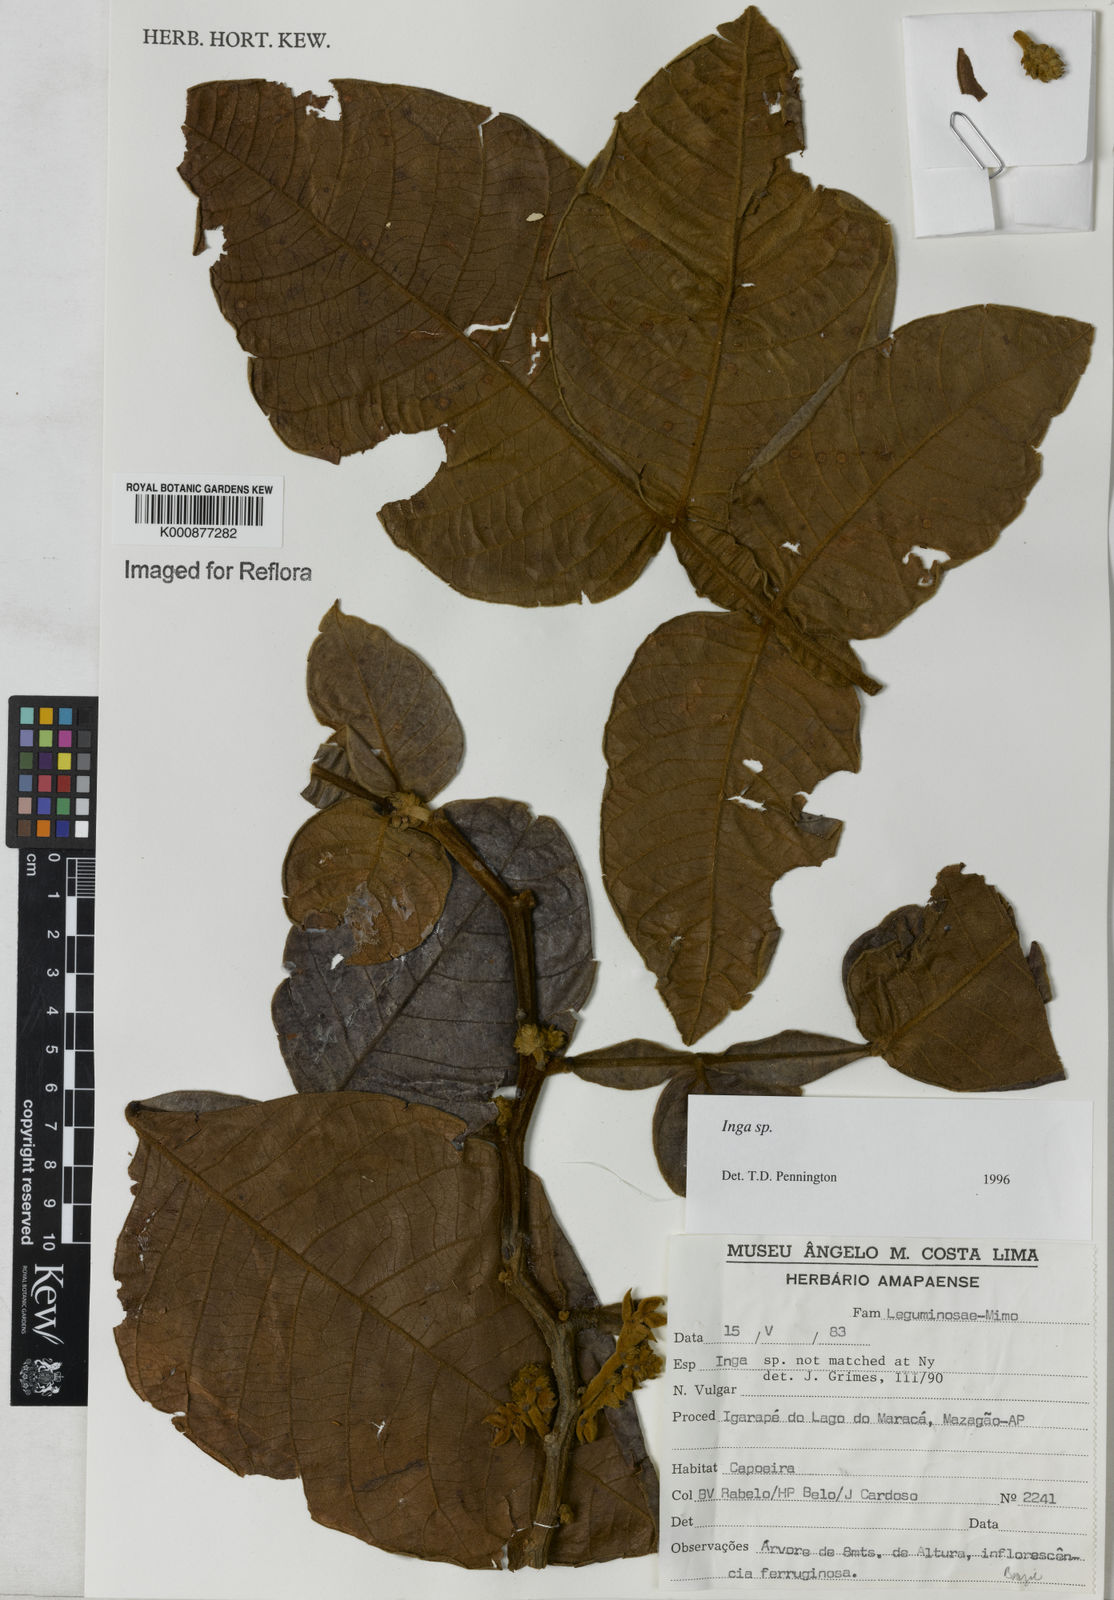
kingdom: Plantae
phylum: Tracheophyta
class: Magnoliopsida
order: Fabales
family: Fabaceae
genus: Inga
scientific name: Inga
